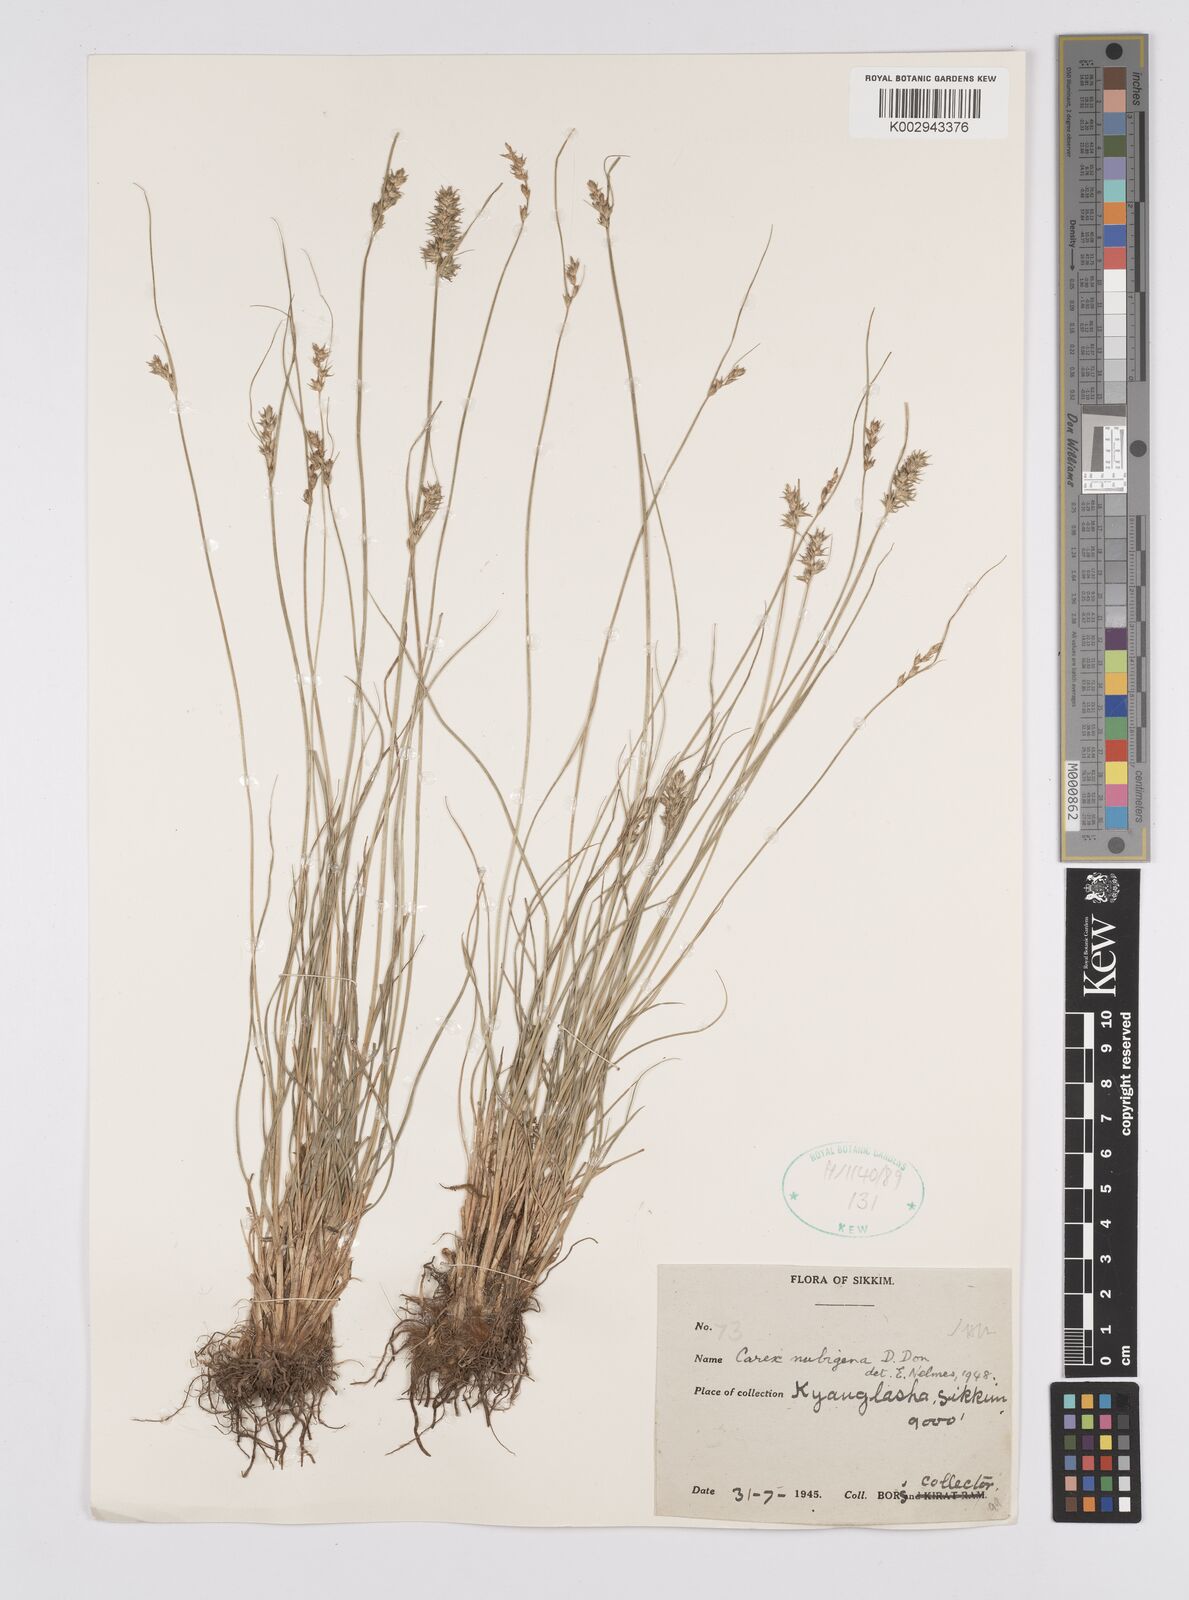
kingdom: Plantae
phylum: Tracheophyta
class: Liliopsida
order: Poales
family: Cyperaceae
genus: Carex
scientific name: Carex nubigena
